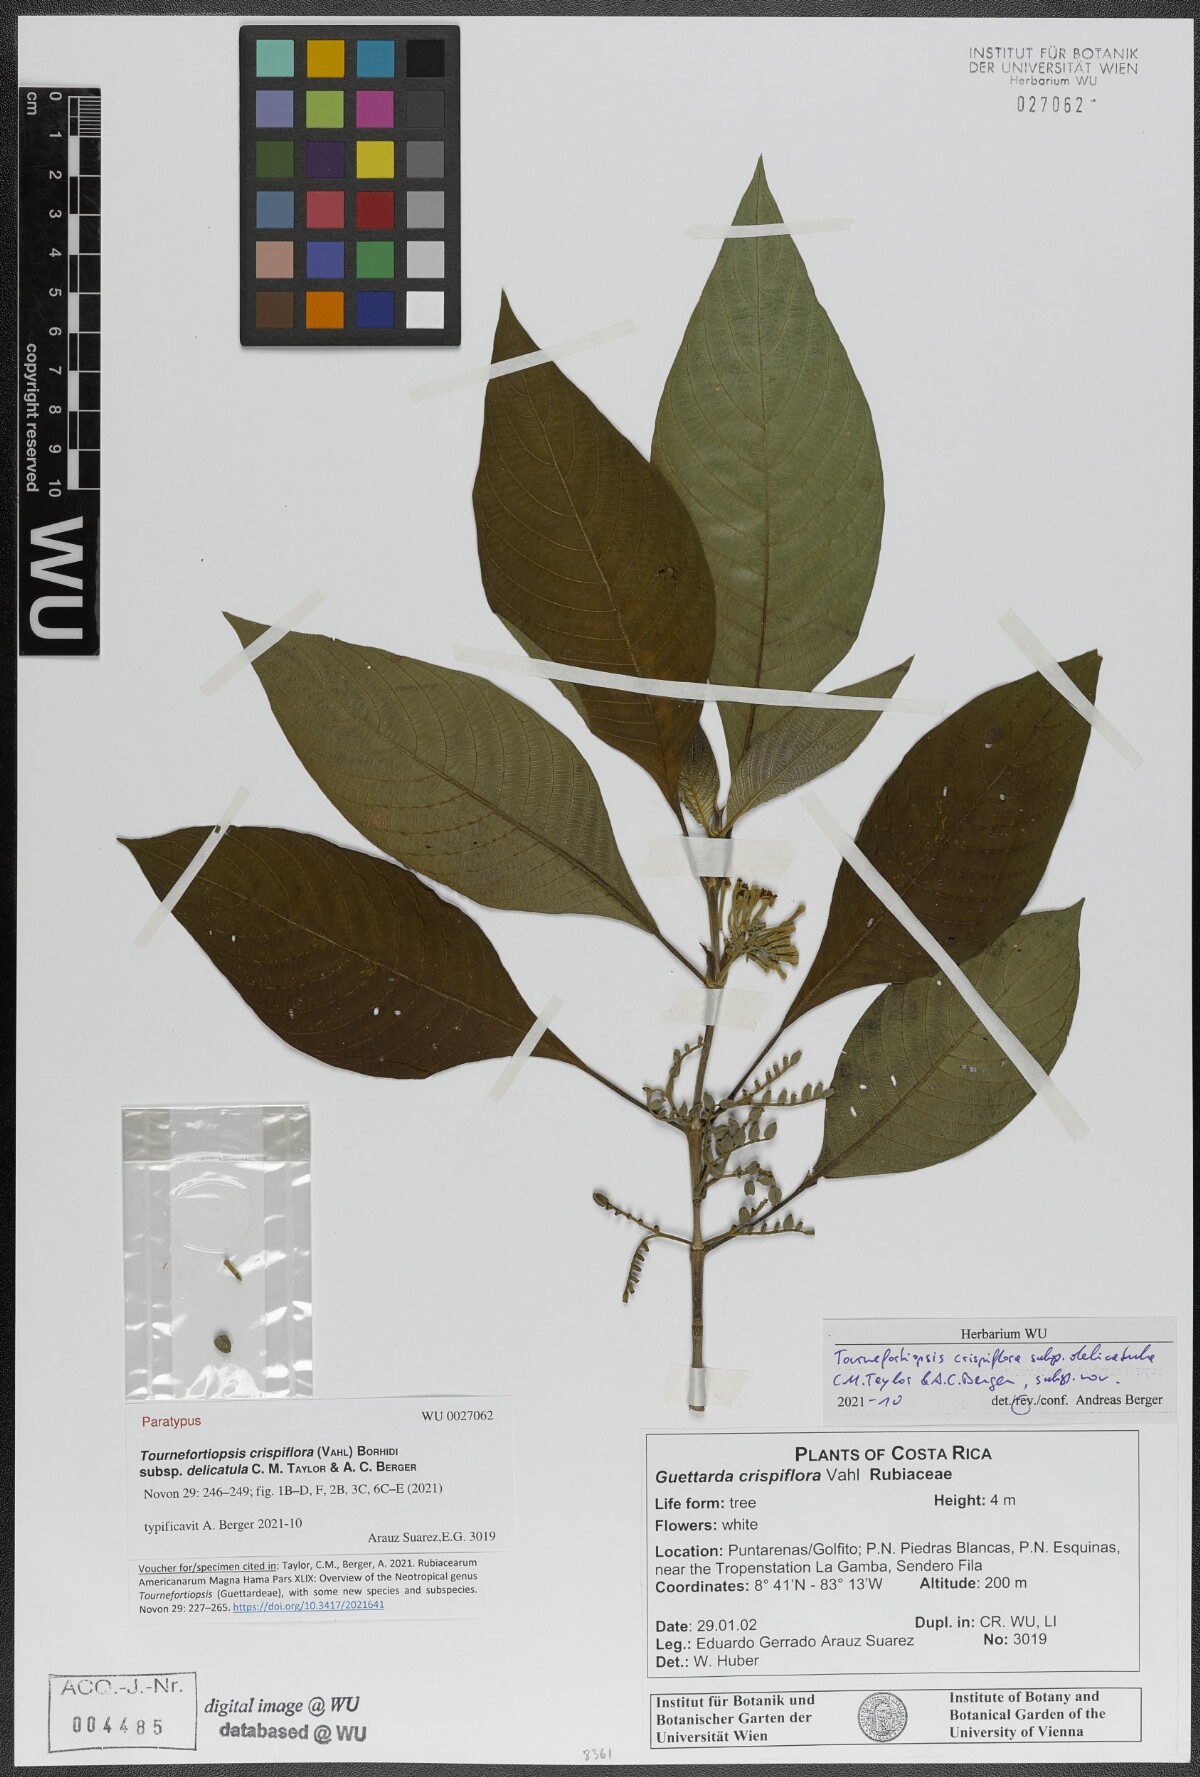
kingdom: Plantae
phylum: Tracheophyta
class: Magnoliopsida
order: Gentianales
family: Rubiaceae
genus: Tournefortiopsis
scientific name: Tournefortiopsis crispiflora
